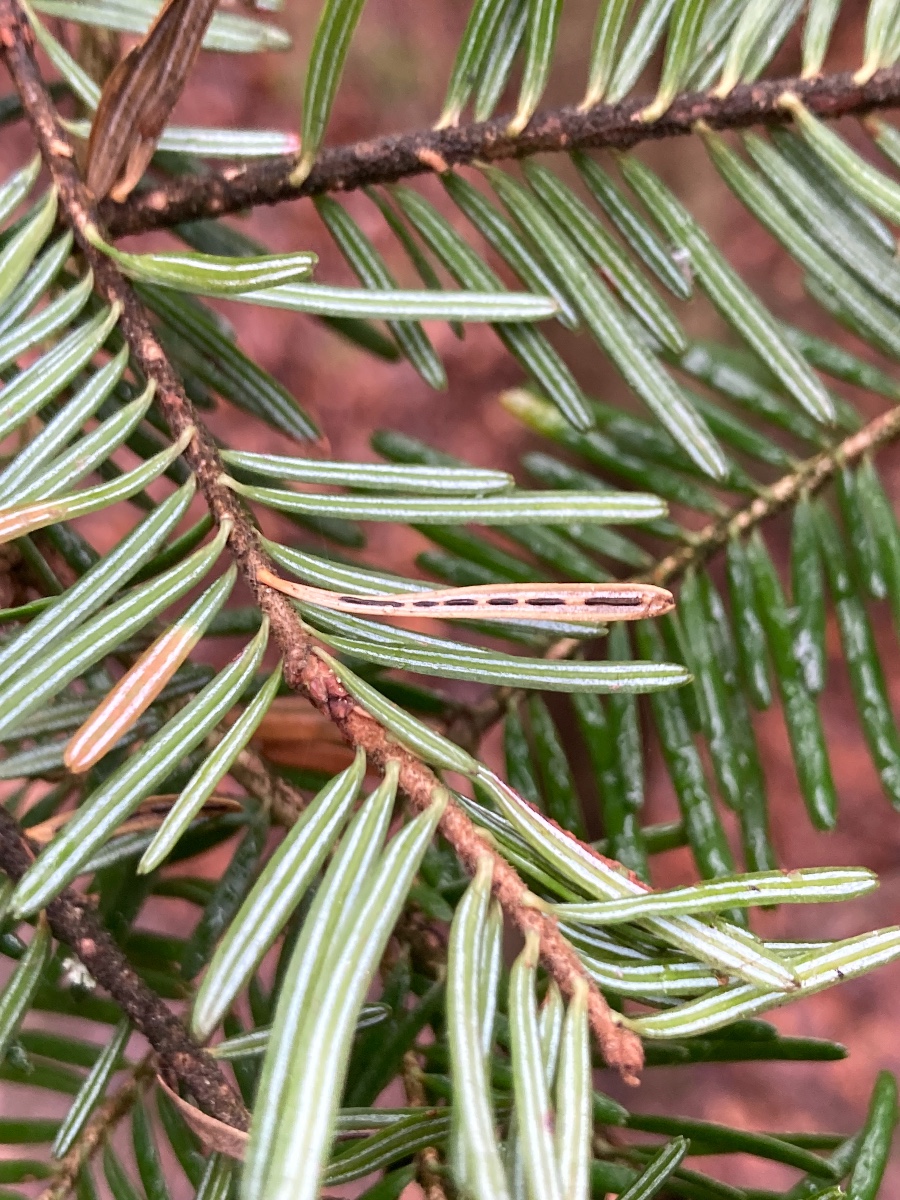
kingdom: Fungi
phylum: Ascomycota
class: Leotiomycetes
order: Rhytismatales
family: Rhytismataceae
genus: Lirula
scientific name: Lirula nervisequia
